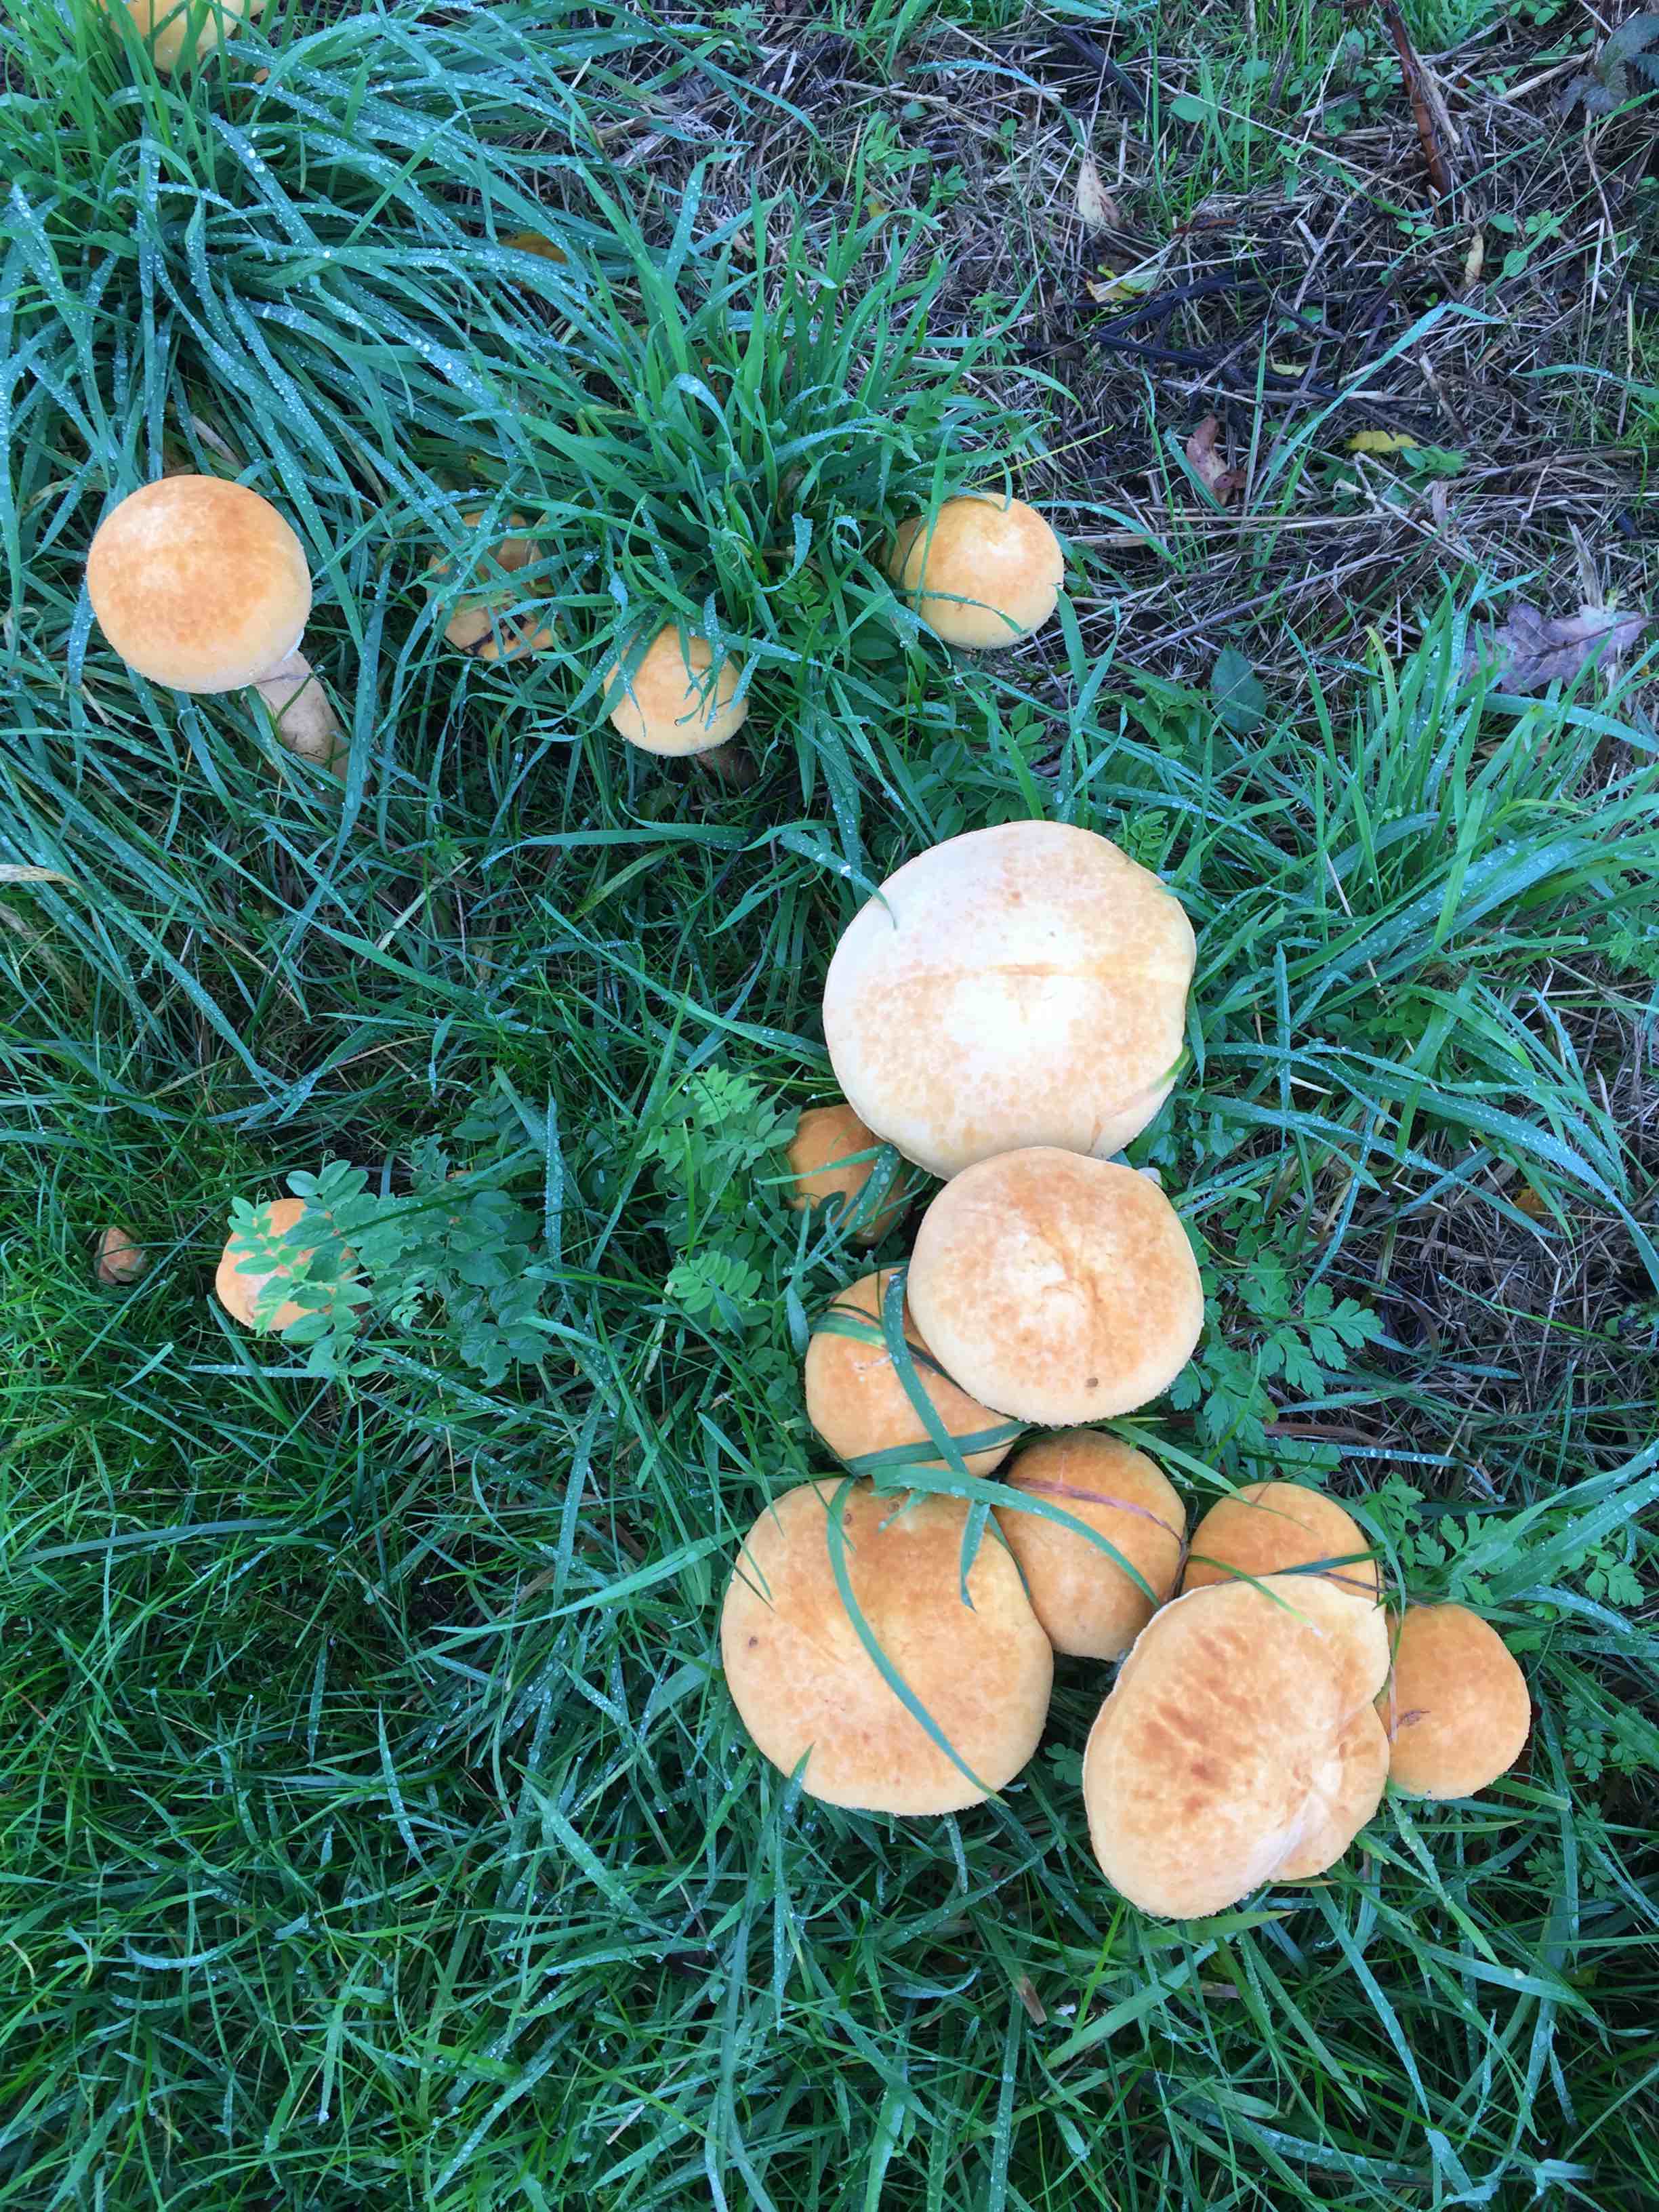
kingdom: Fungi
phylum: Basidiomycota
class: Agaricomycetes
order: Agaricales
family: Tricholomataceae
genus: Phaeolepiota
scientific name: Phaeolepiota aurea
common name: gyldenhat
